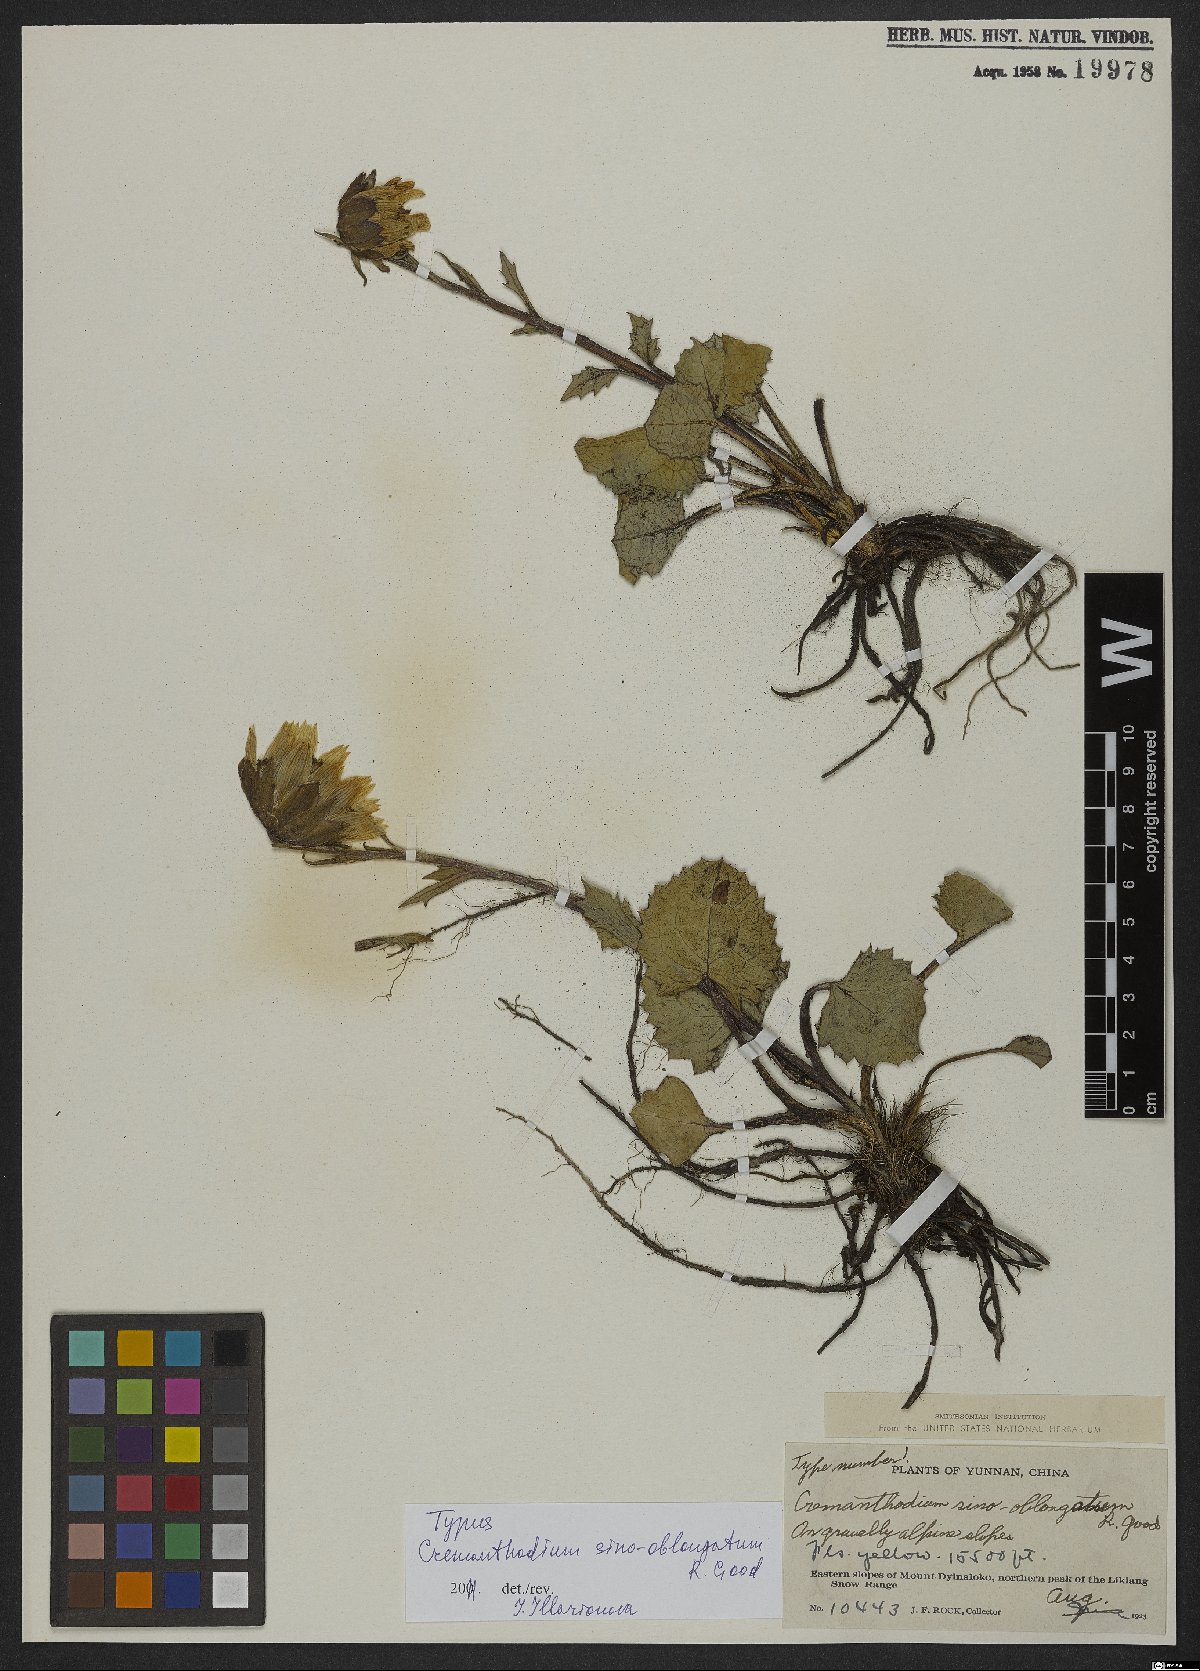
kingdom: Plantae
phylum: Tracheophyta
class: Magnoliopsida
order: Asterales
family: Asteraceae
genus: Cremanthodium
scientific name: Cremanthodium sinooblongatum
